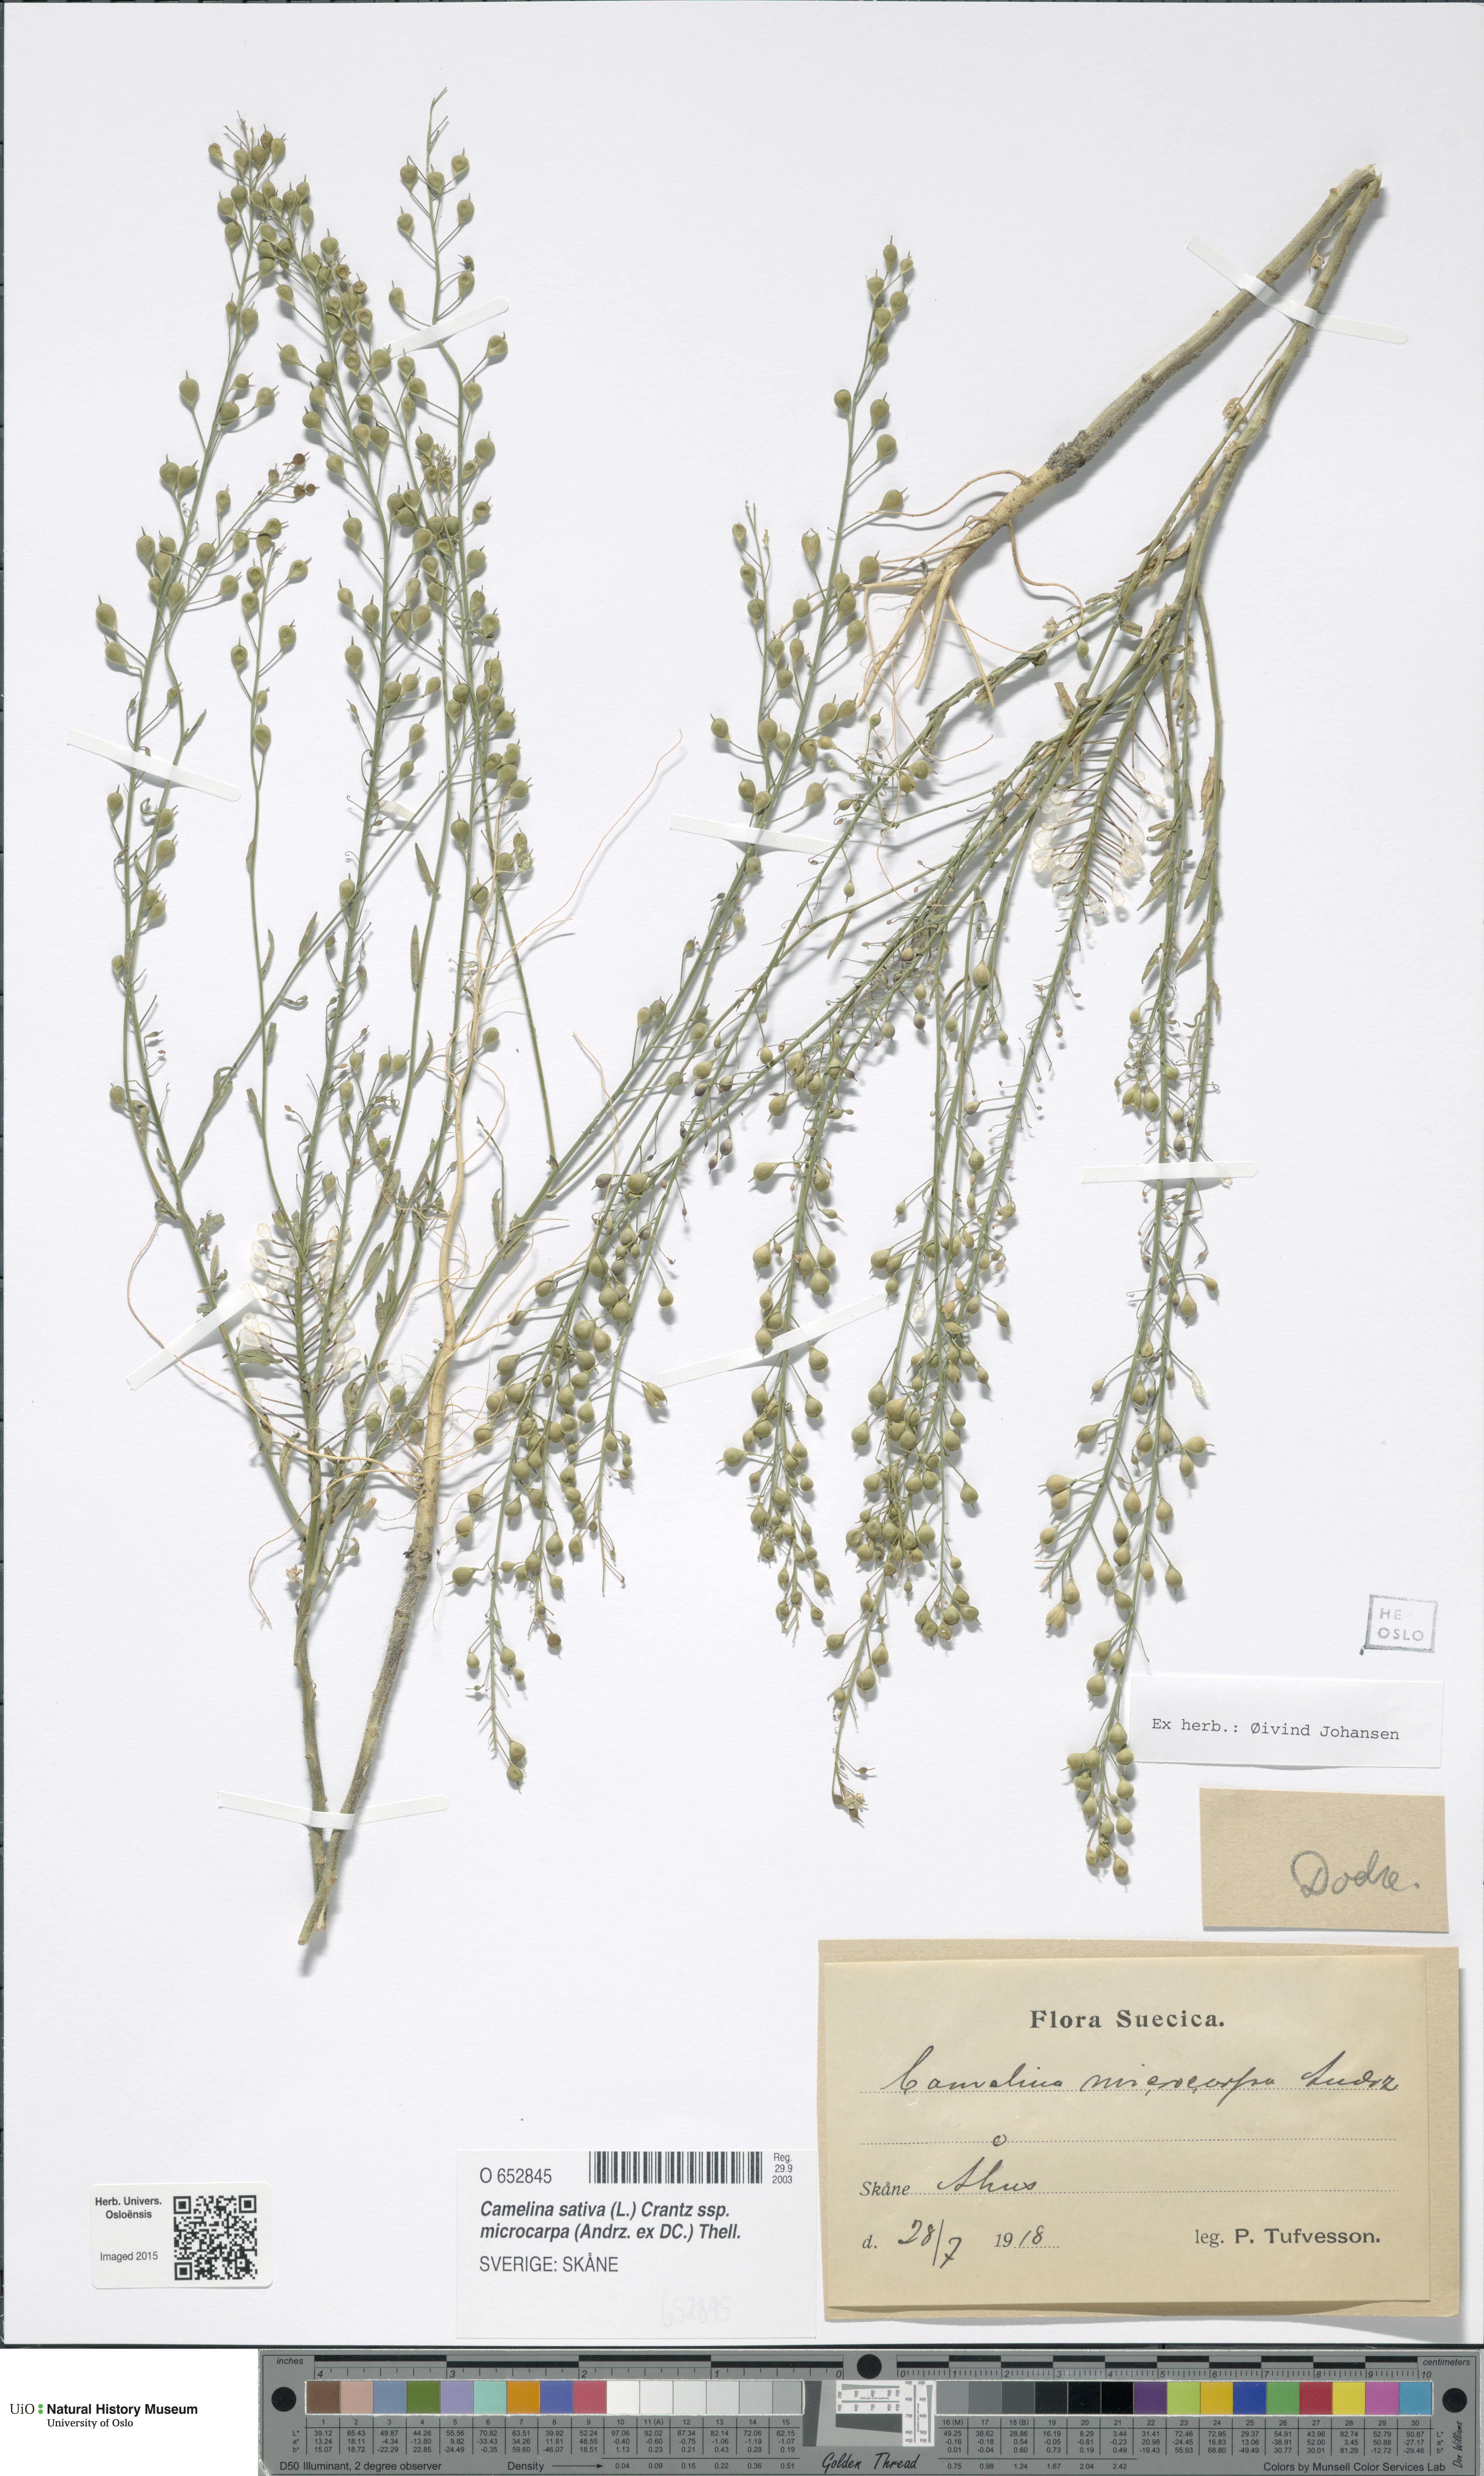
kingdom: Plantae
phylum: Tracheophyta
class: Magnoliopsida
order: Brassicales
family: Brassicaceae
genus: Camelina
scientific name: Camelina sativa
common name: Gold-of-pleasure
